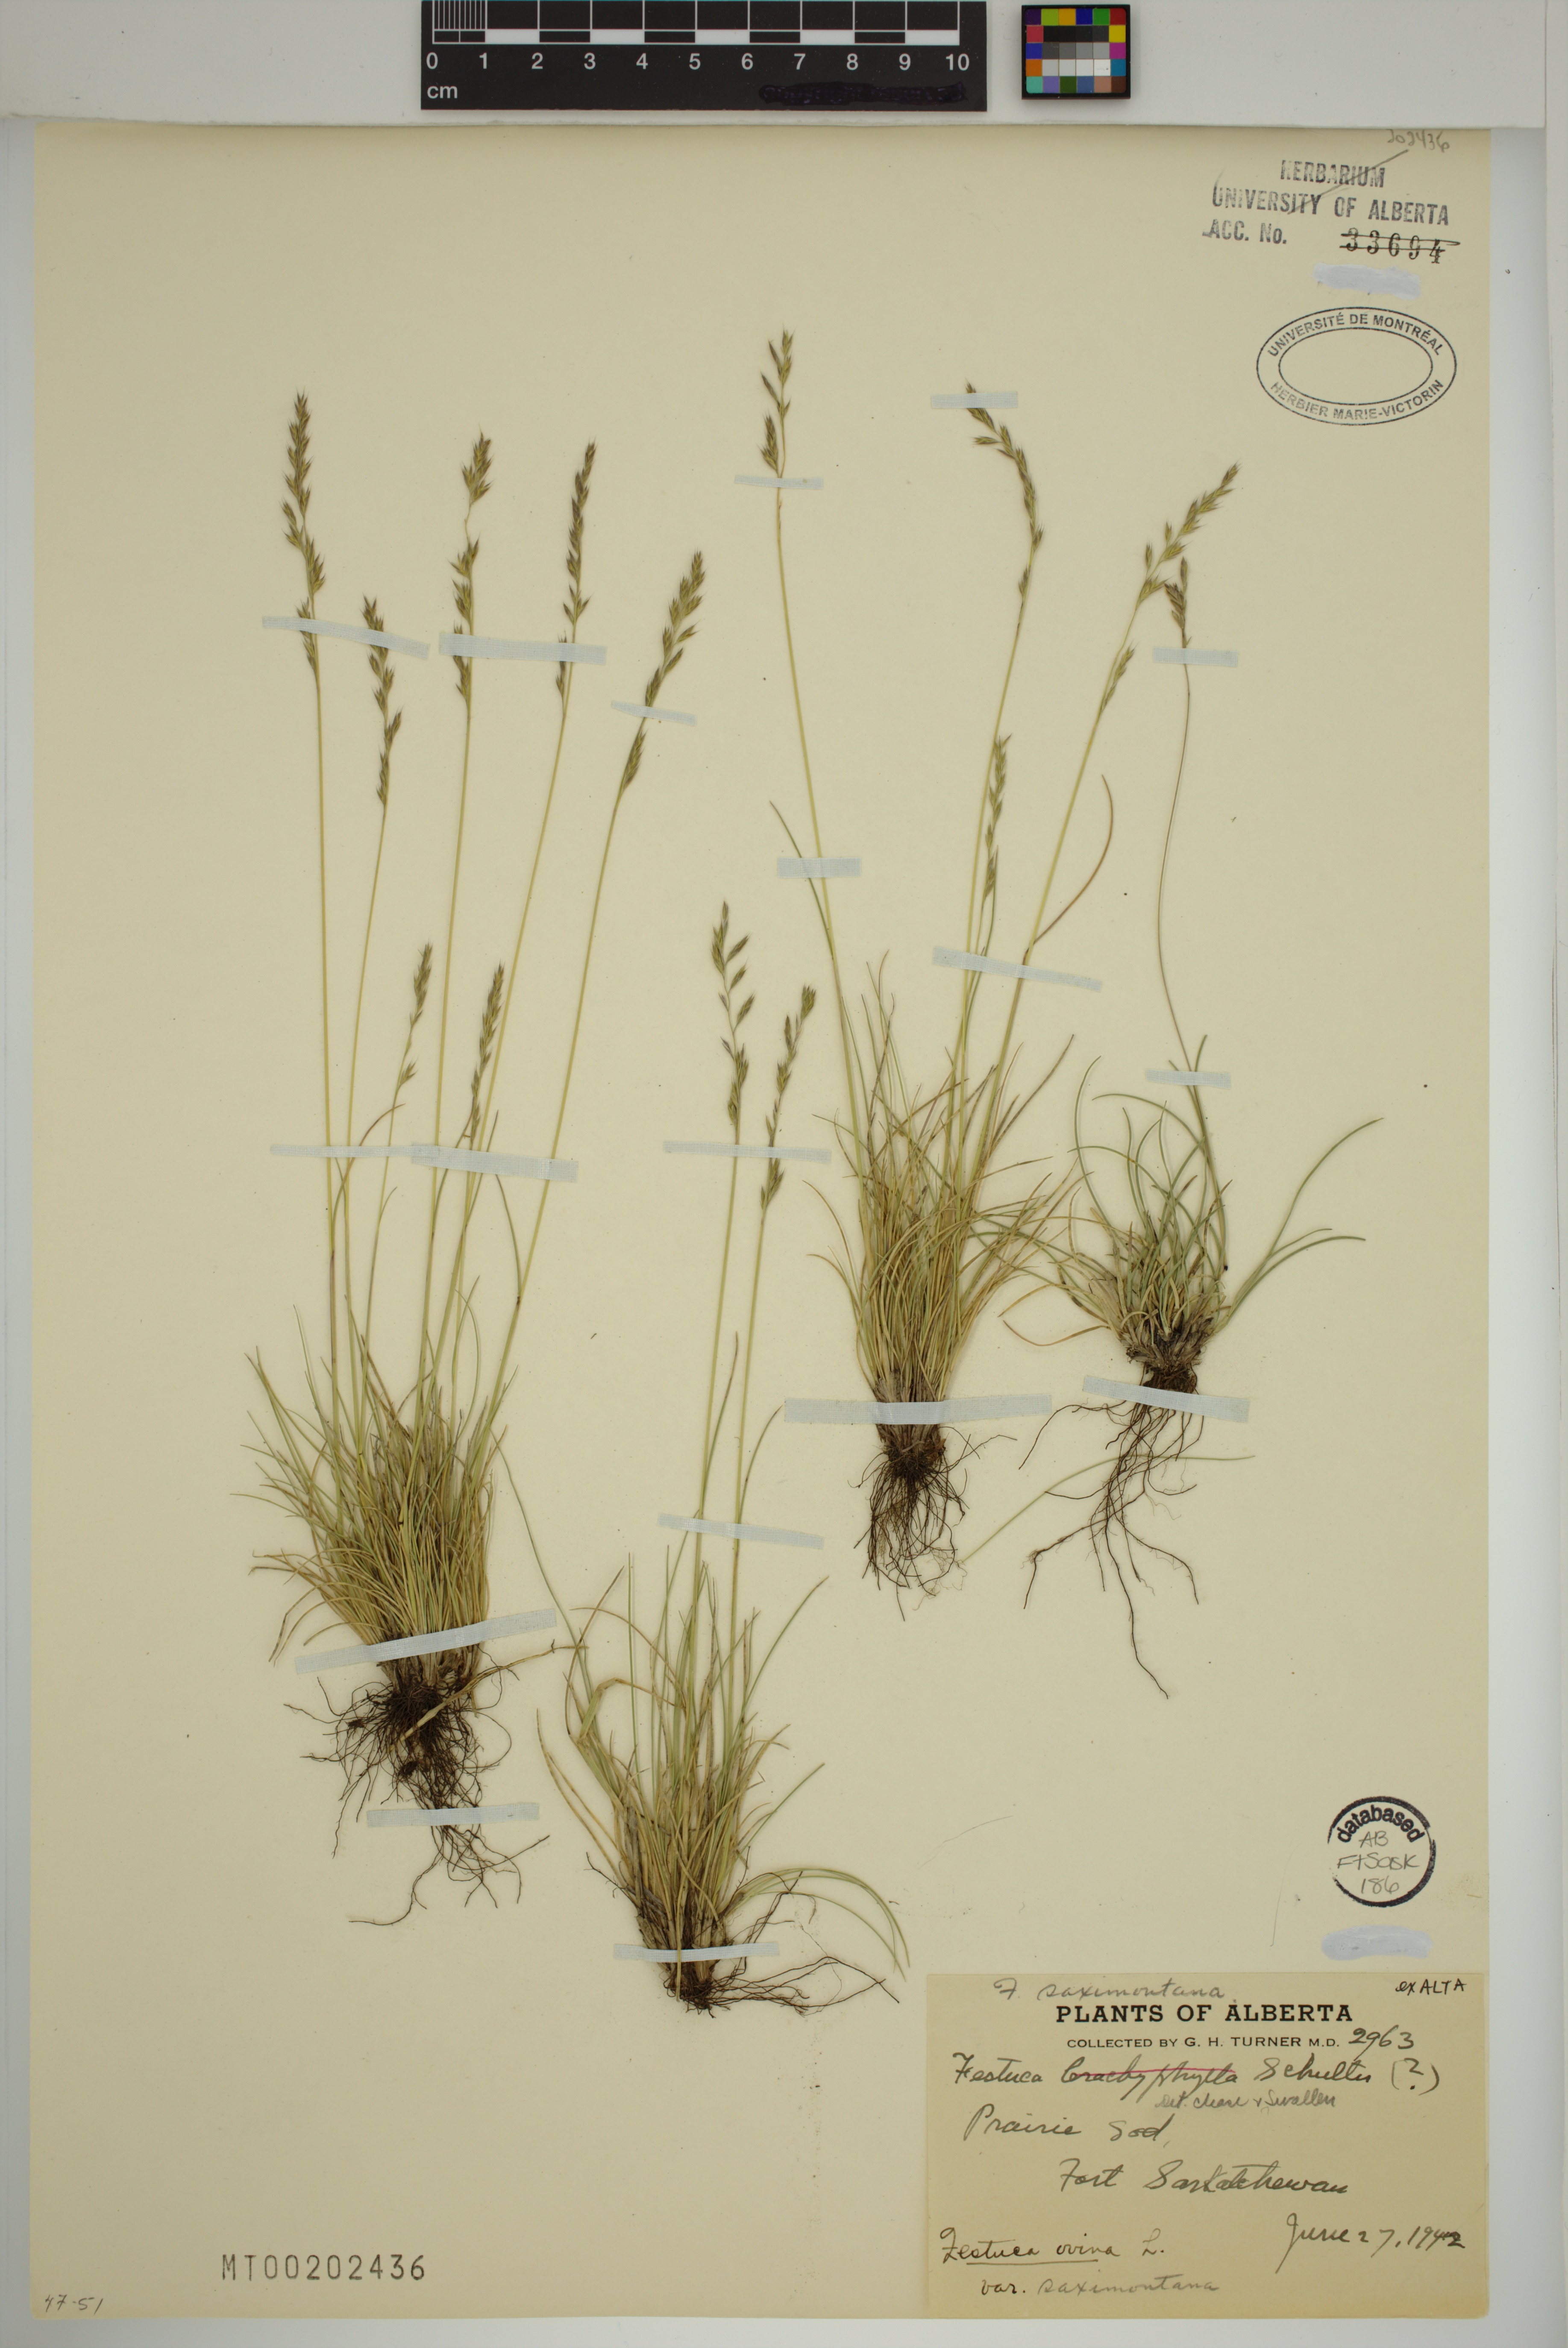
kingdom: Plantae
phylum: Tracheophyta
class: Liliopsida
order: Poales
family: Poaceae
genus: Festuca
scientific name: Festuca trachyphylla
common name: Hard fescue
